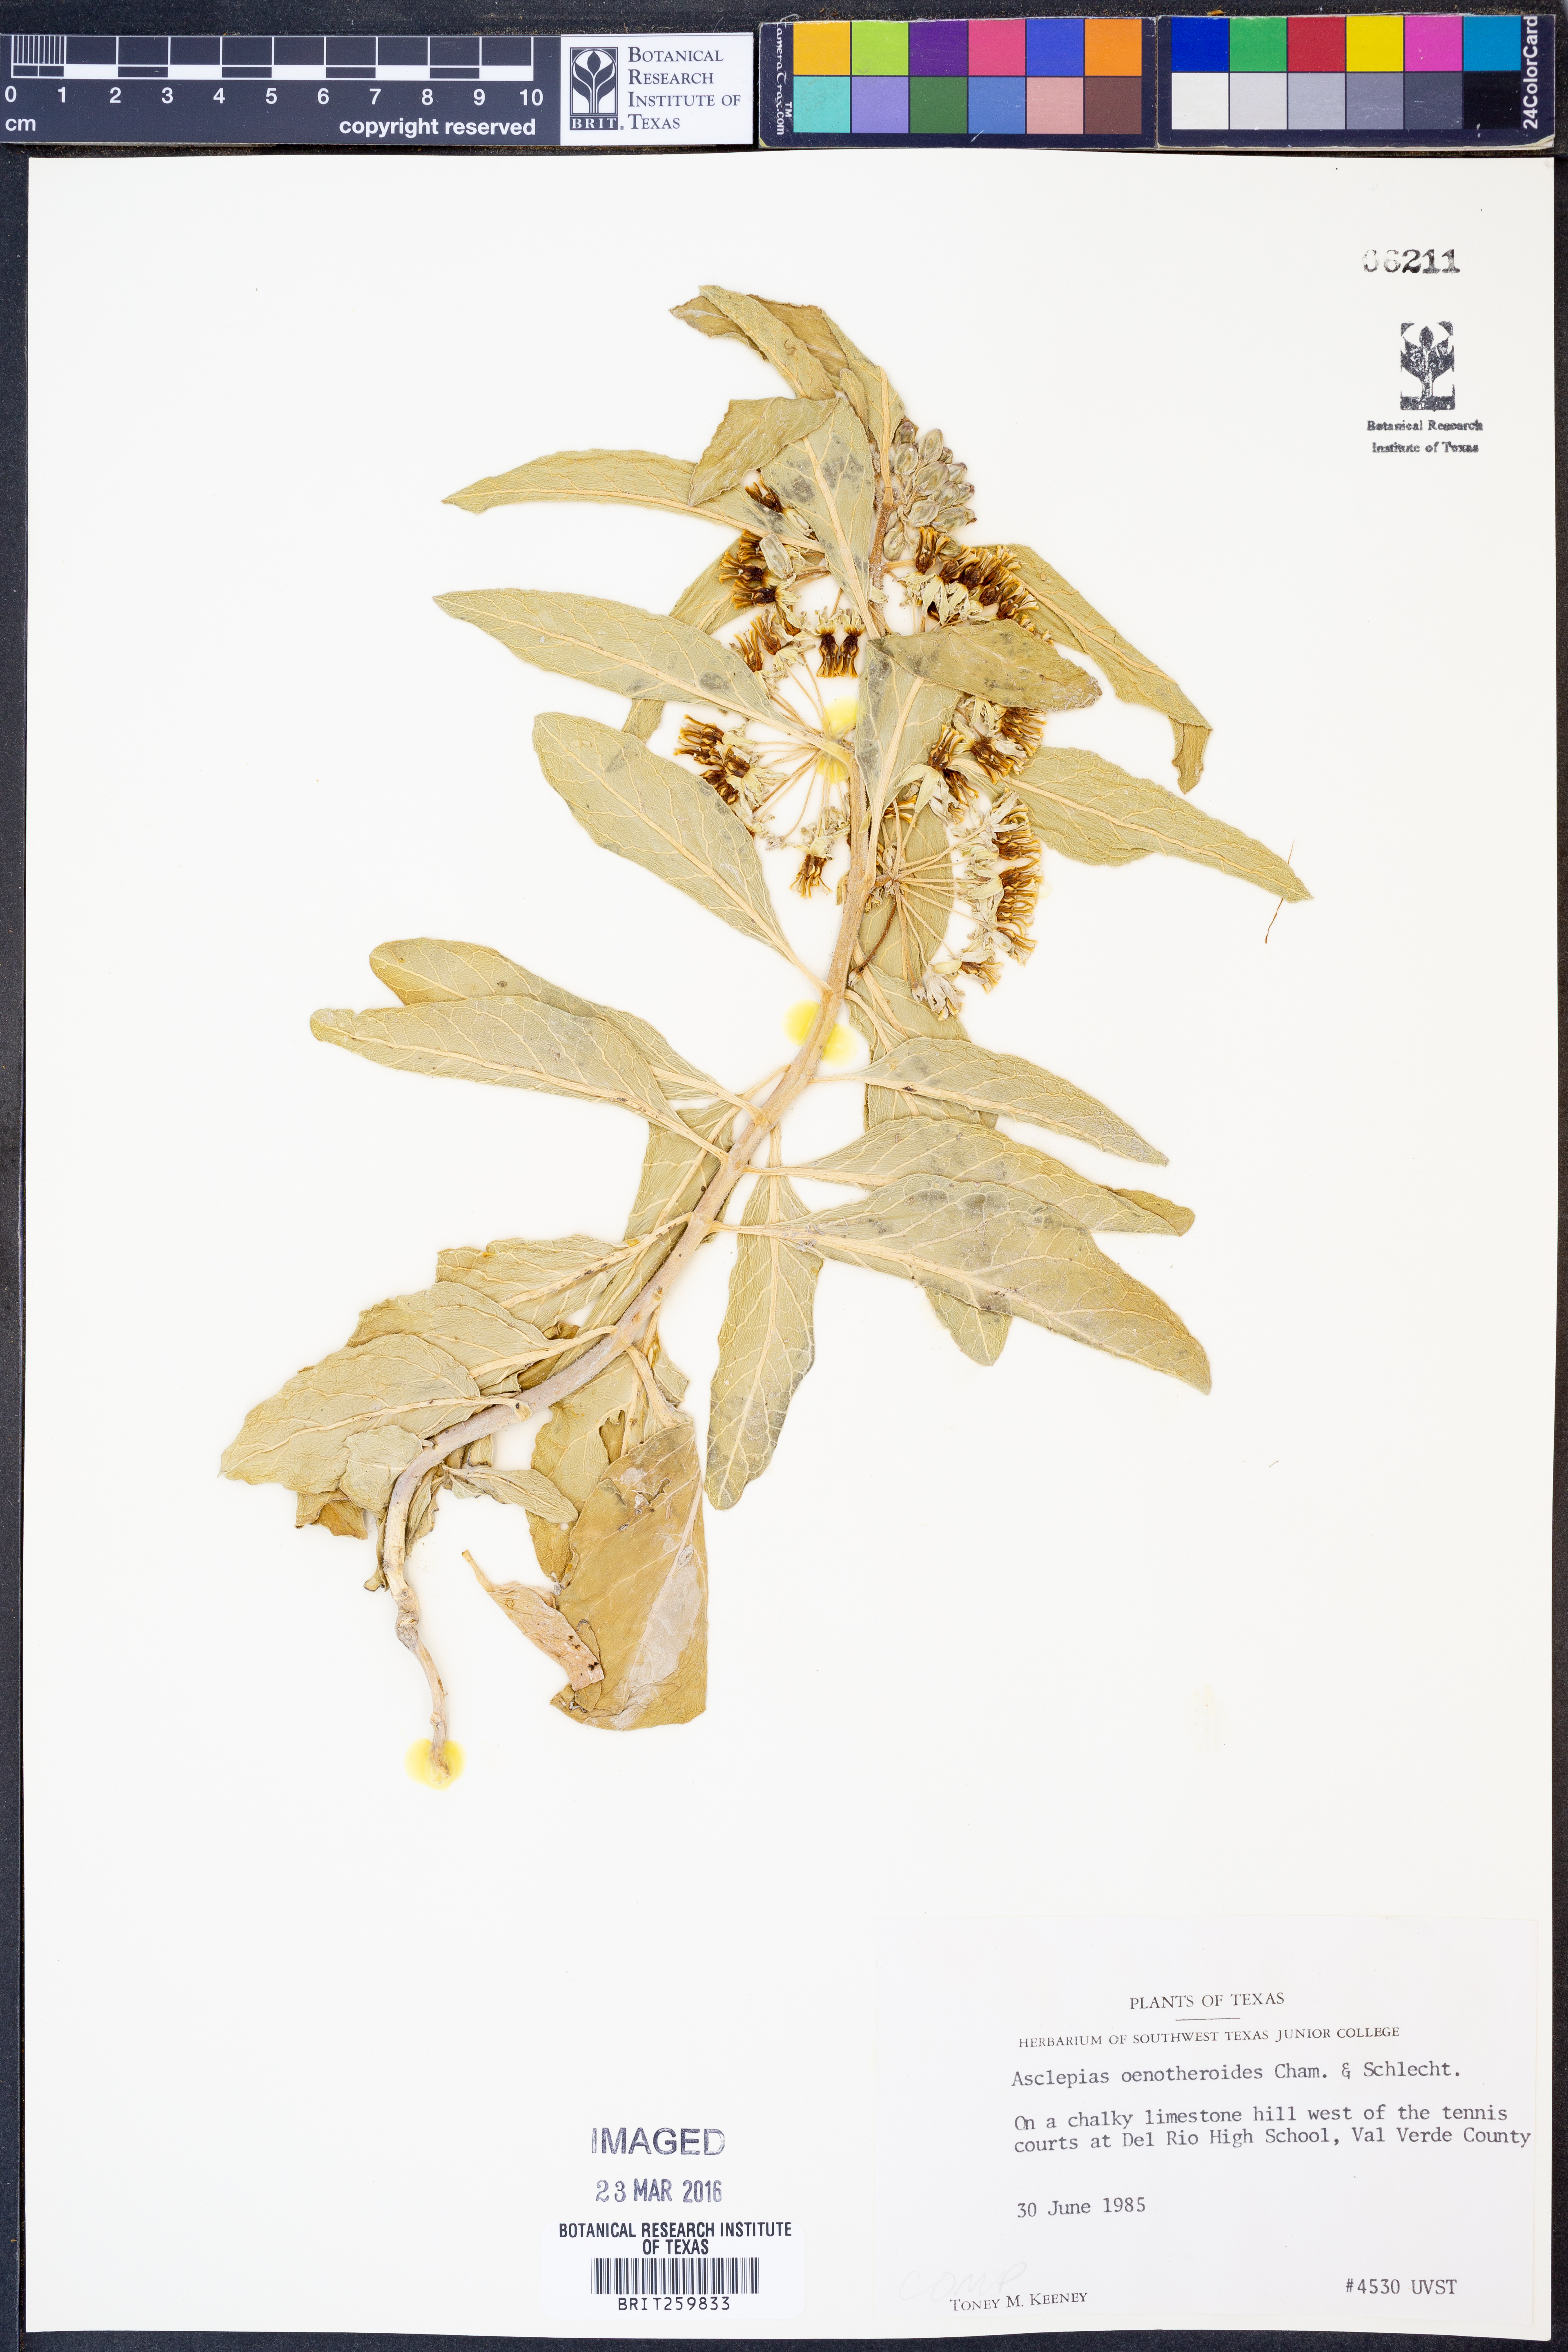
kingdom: Plantae
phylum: Tracheophyta
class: Magnoliopsida
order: Gentianales
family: Apocynaceae
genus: Asclepias
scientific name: Asclepias oenotheroides
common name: Zizotes milkweed
